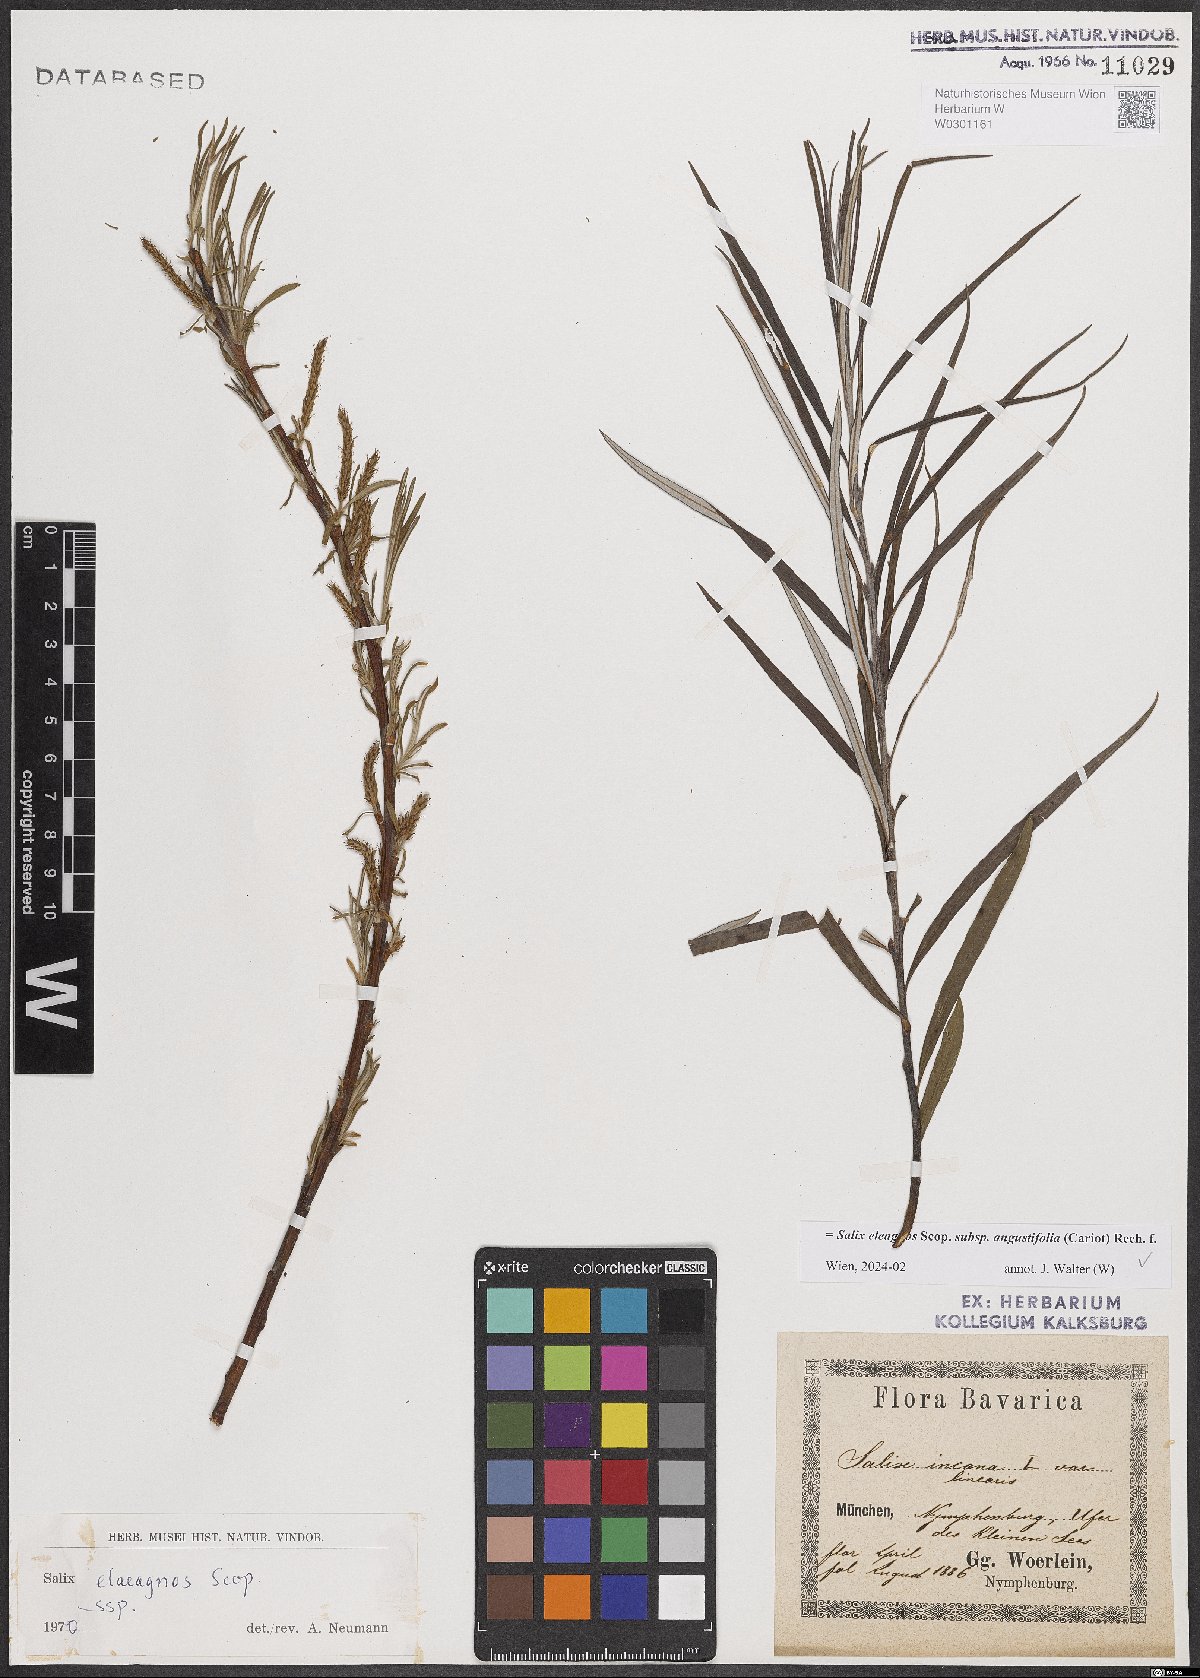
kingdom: Plantae
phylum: Tracheophyta
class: Magnoliopsida
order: Malpighiales
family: Salicaceae
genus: Salix
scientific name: Salix eleagnos
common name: Elaeagnus willow
